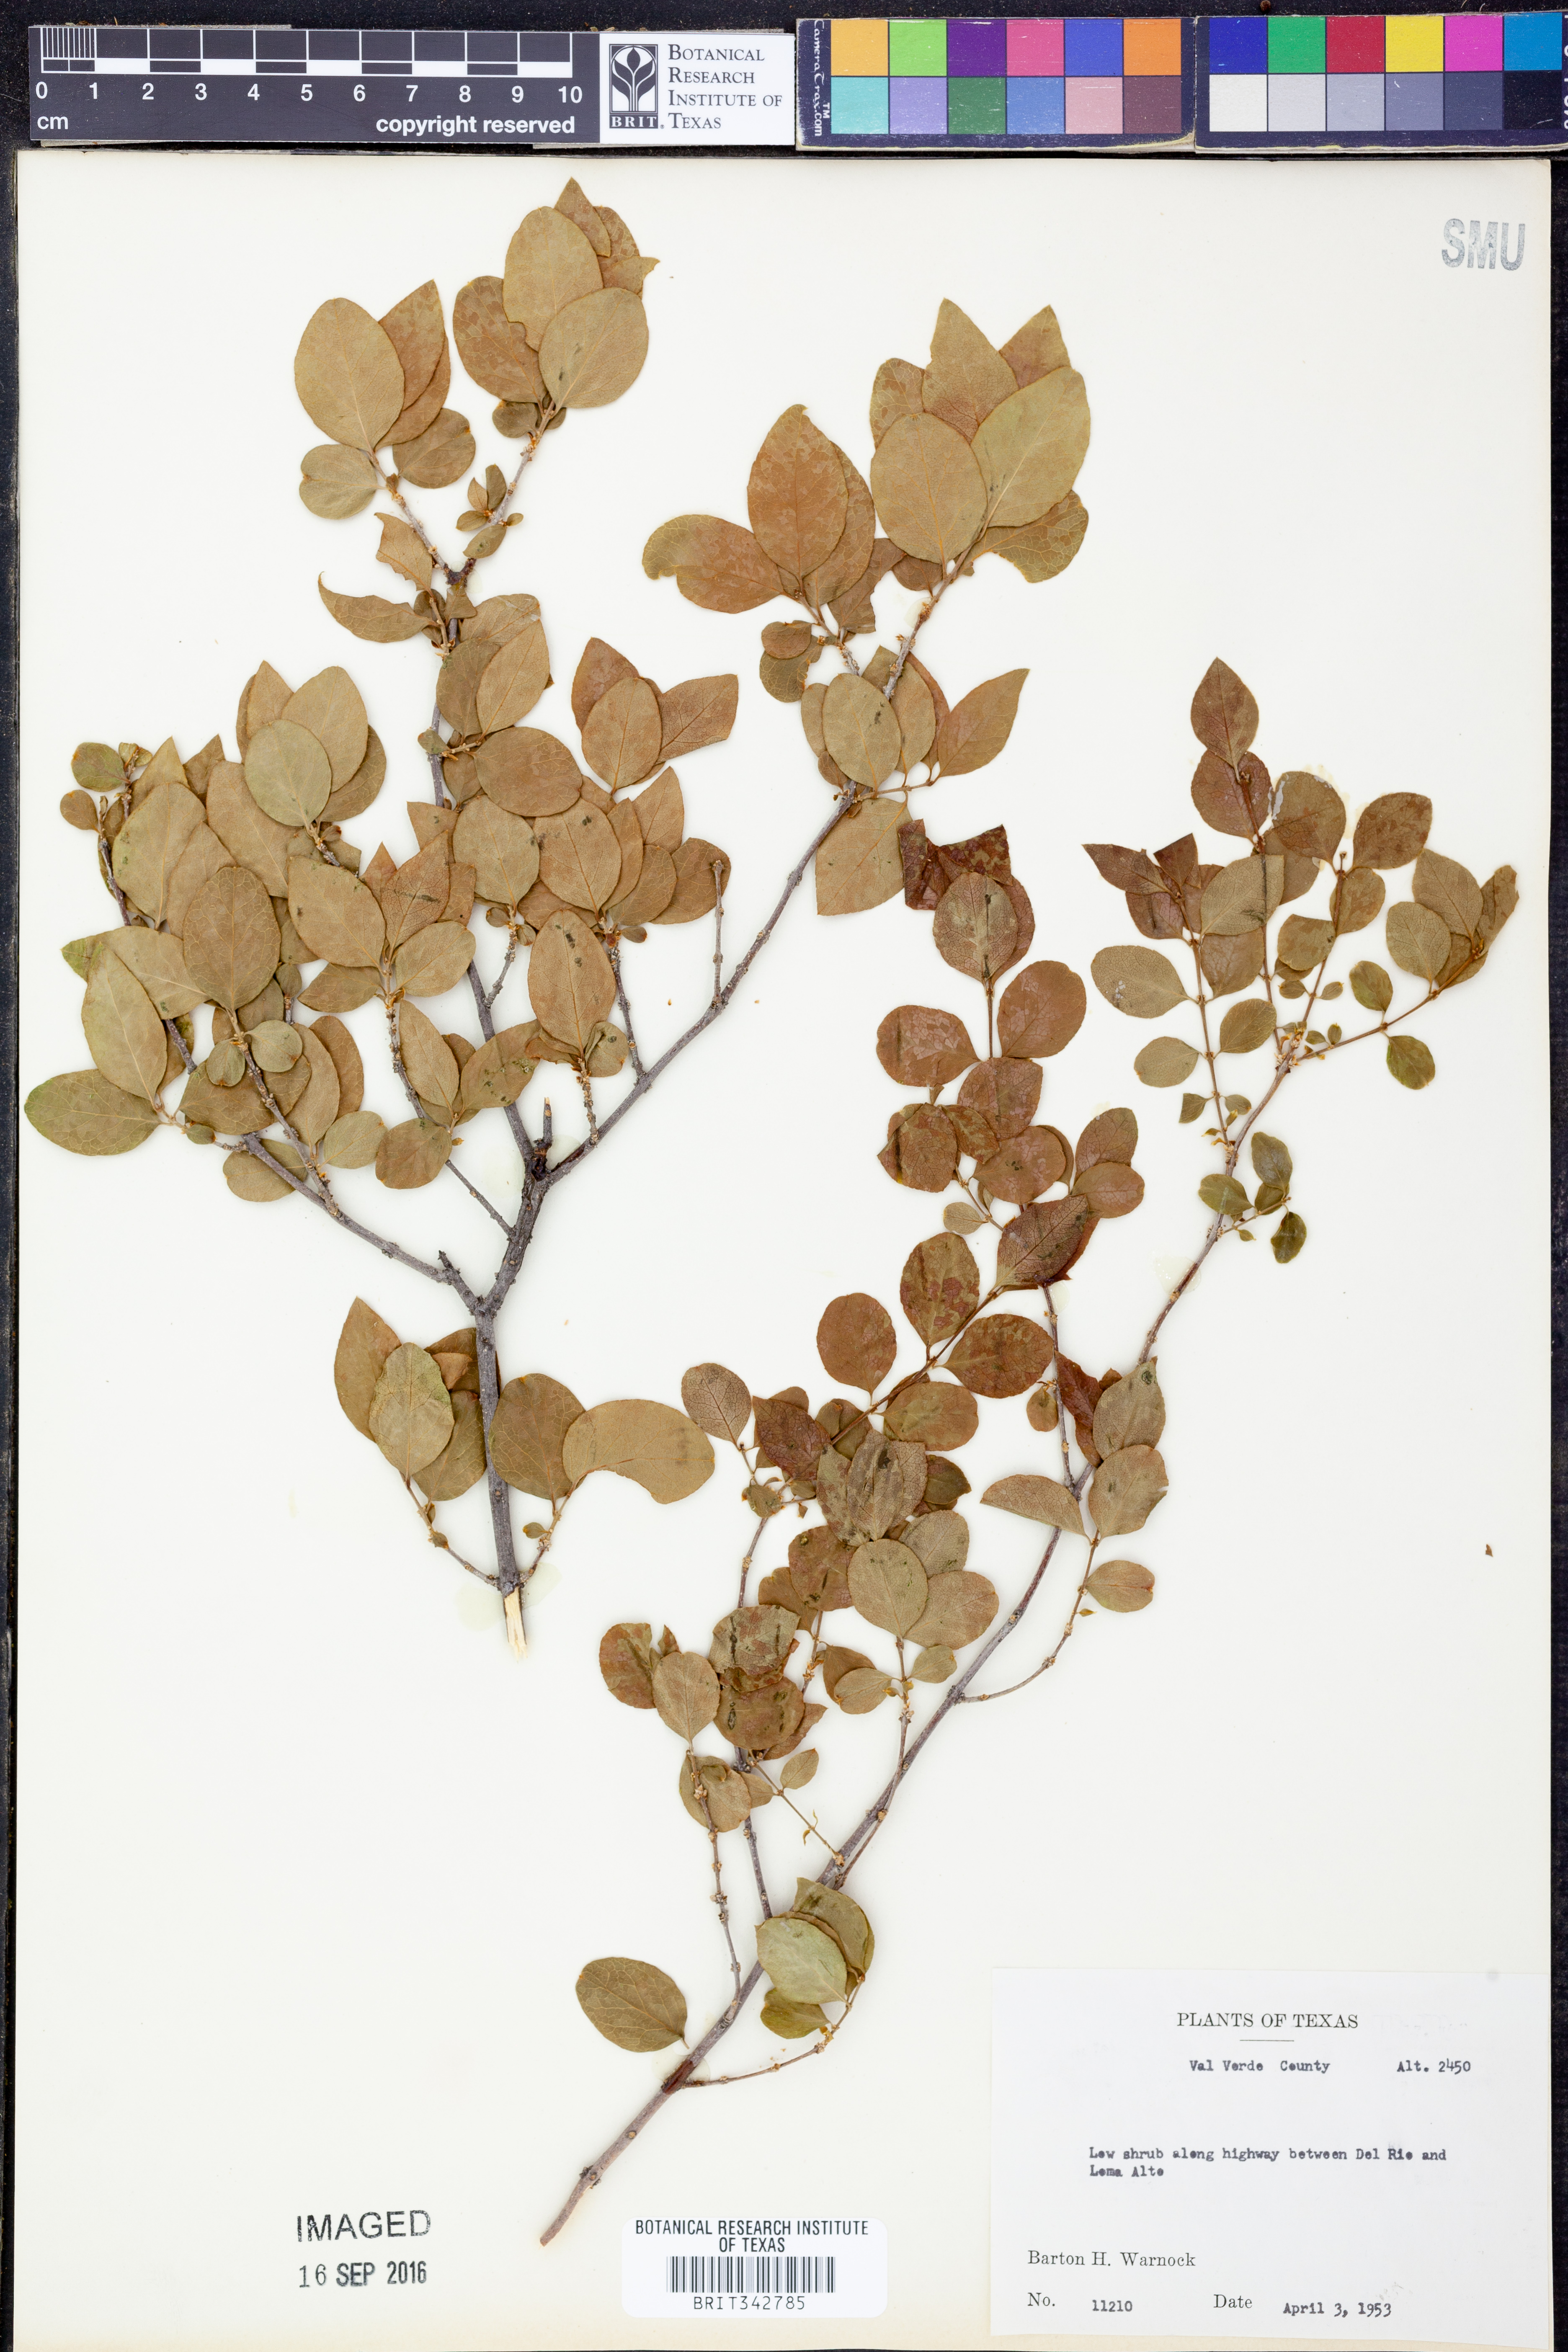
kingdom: Plantae
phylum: Tracheophyta
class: Magnoliopsida
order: Lamiales
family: Oleaceae
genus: Forestiera
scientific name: Forestiera reticulata
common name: Netleaf swamp-privet
